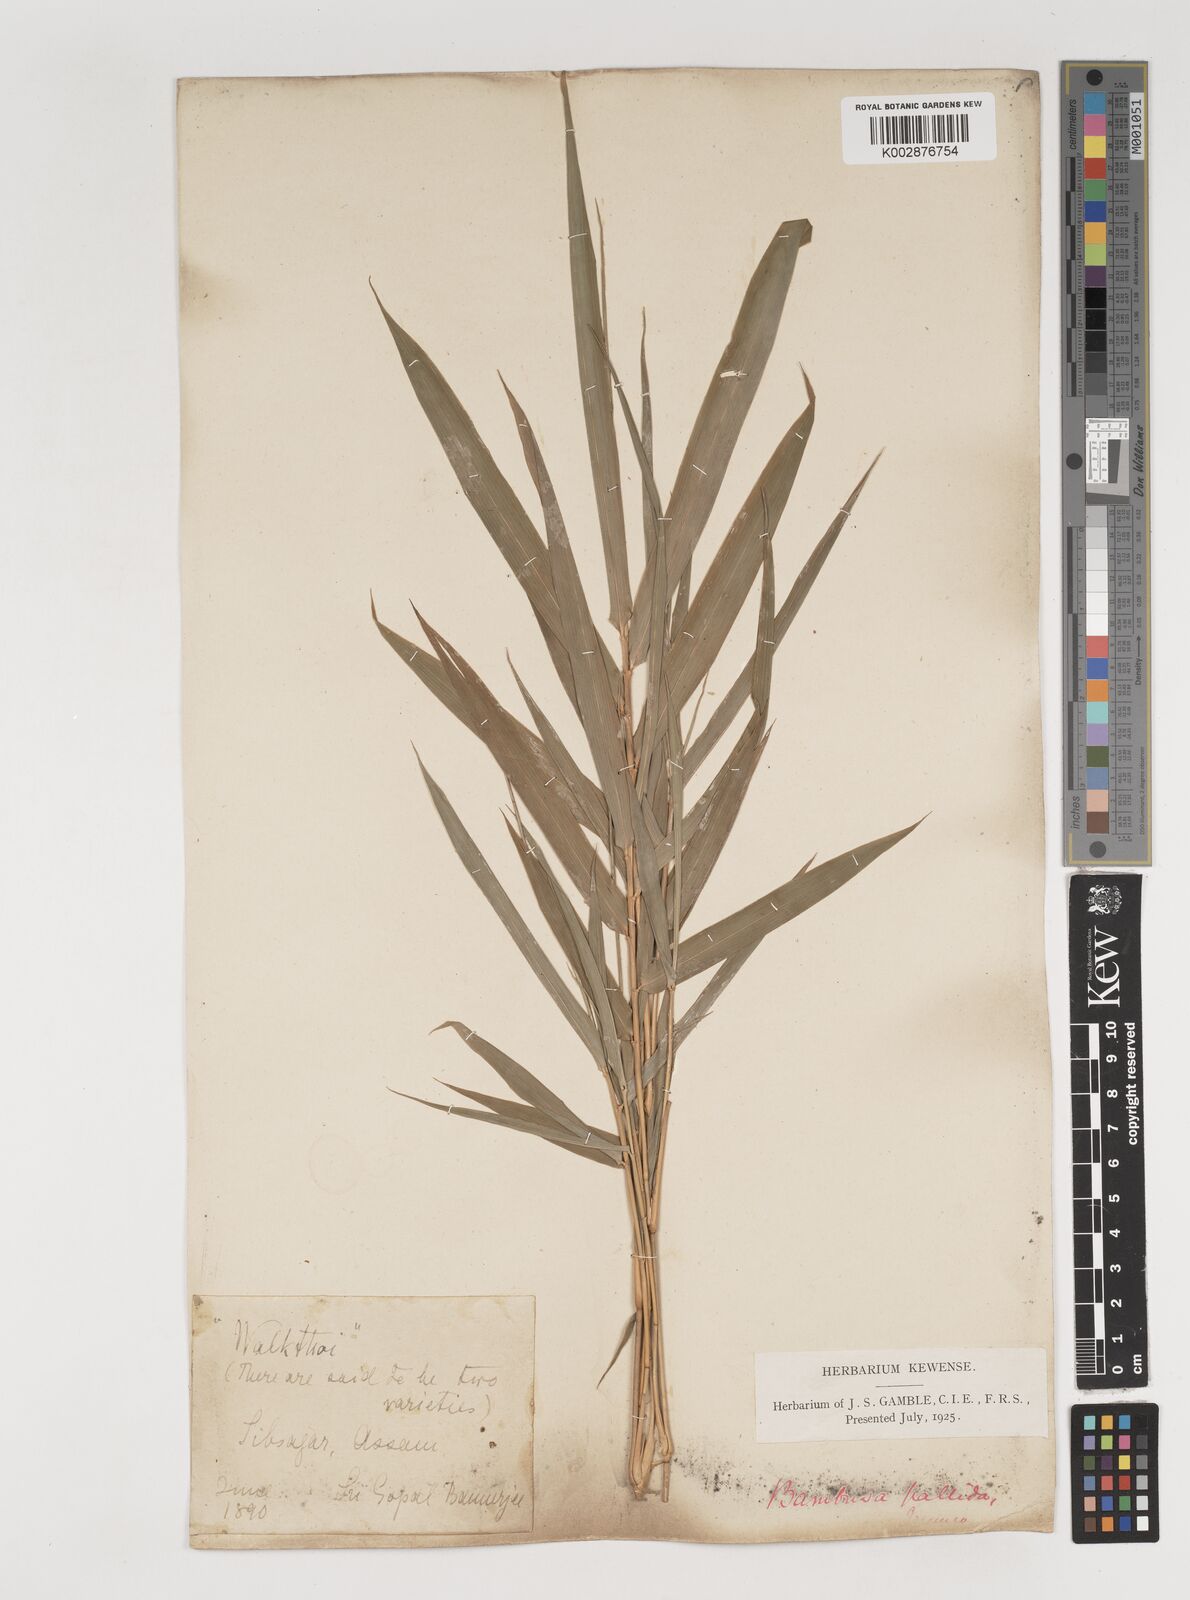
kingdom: Plantae
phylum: Tracheophyta
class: Liliopsida
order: Poales
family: Poaceae
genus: Bambusa
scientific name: Bambusa pallida
